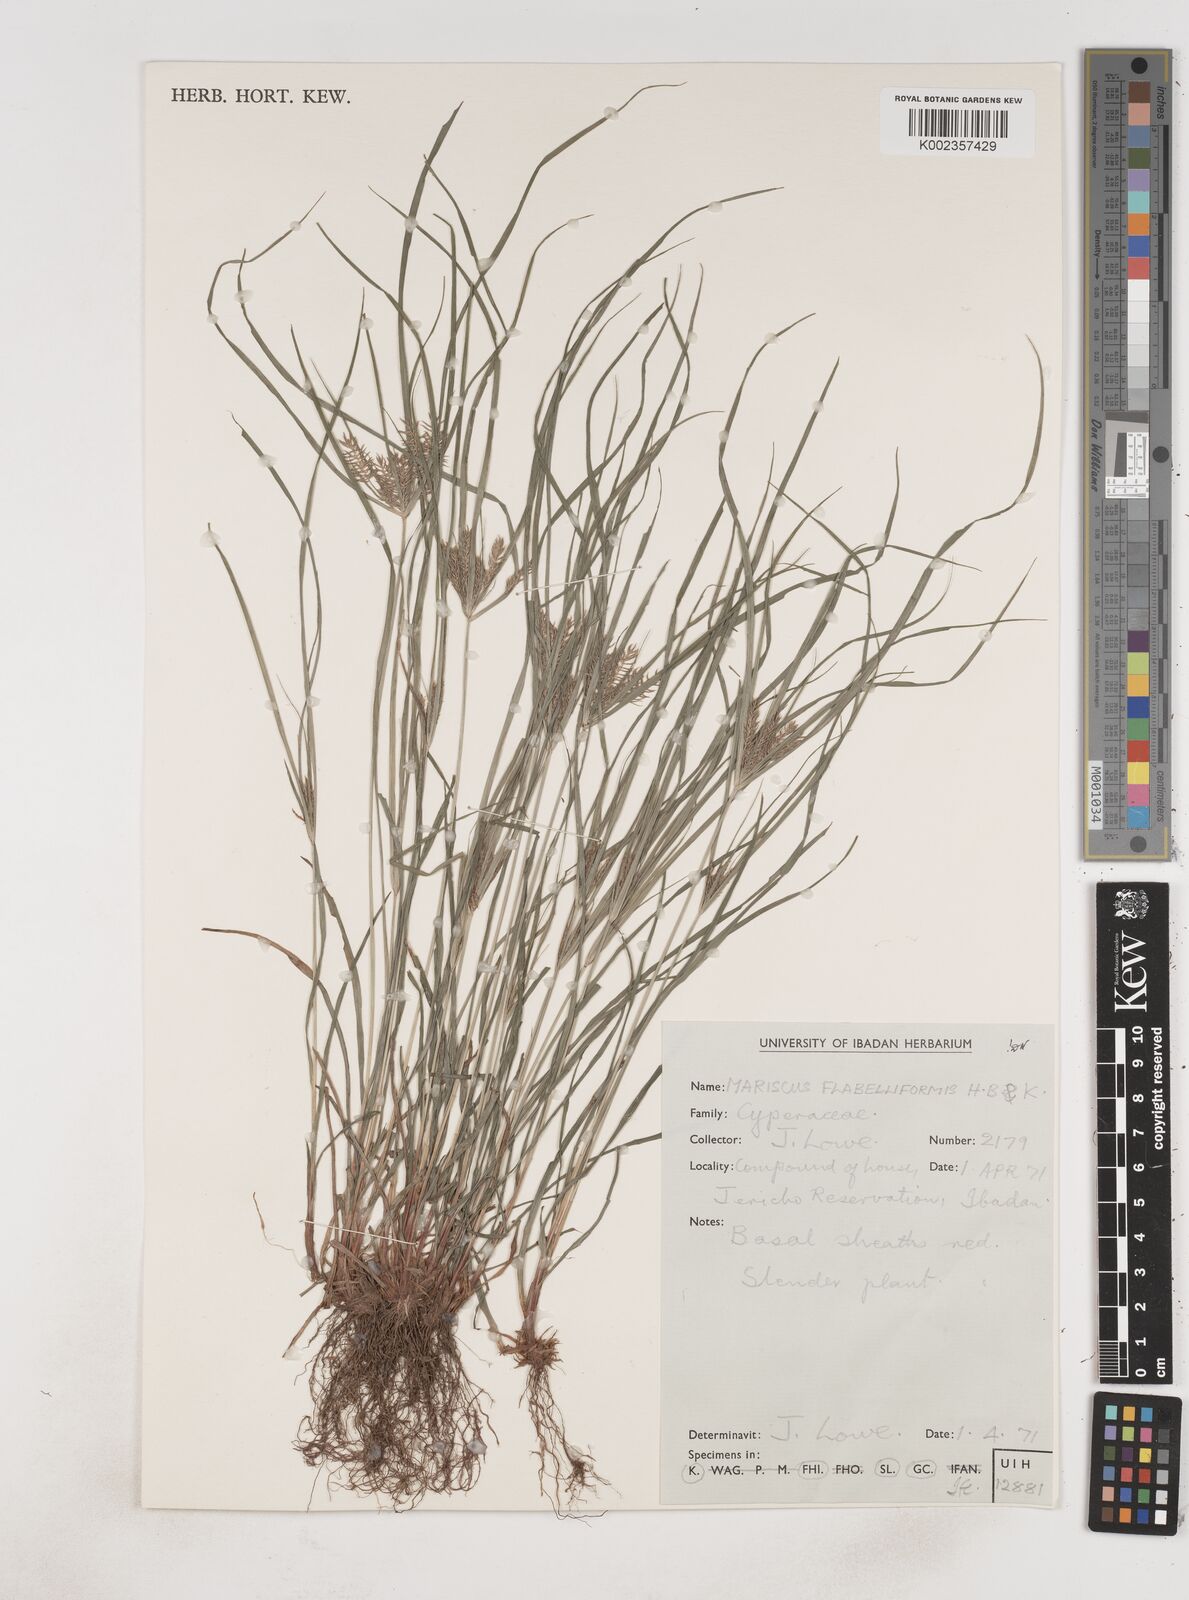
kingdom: Plantae
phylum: Tracheophyta
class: Liliopsida
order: Poales
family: Cyperaceae
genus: Cyperus
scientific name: Cyperus tenuis
